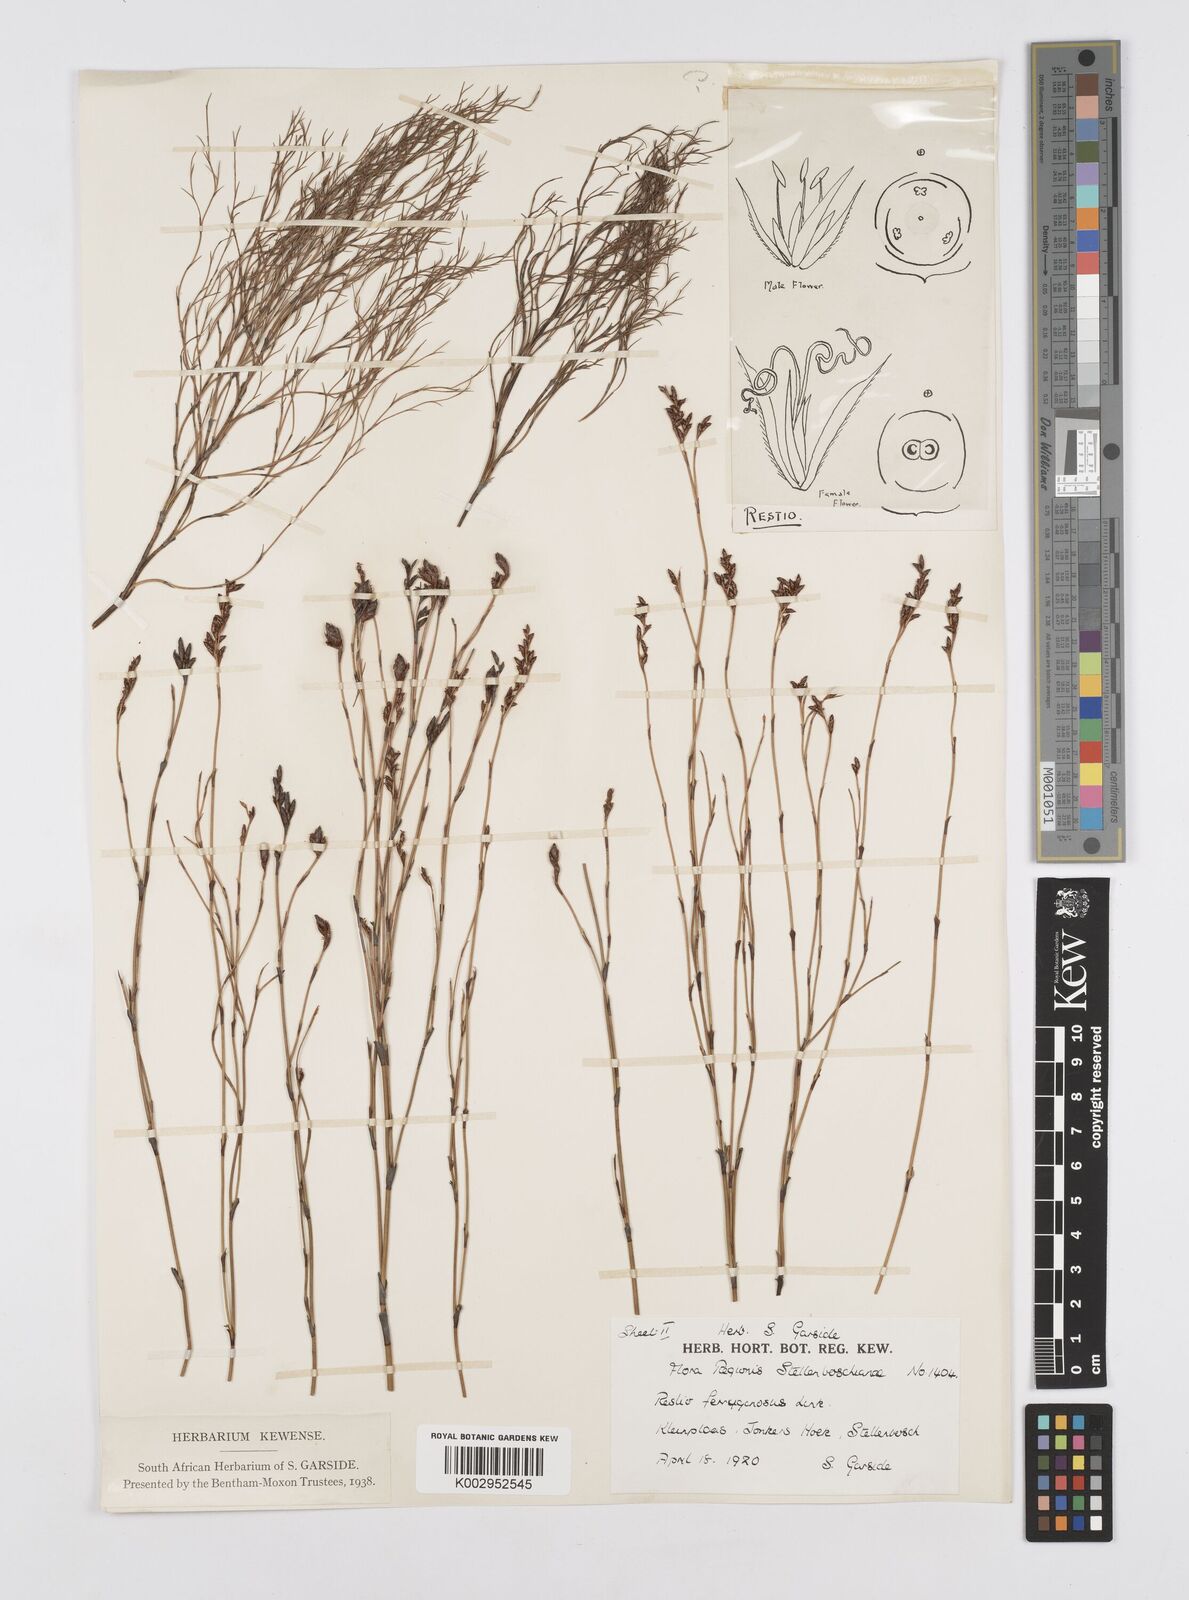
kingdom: Plantae
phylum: Tracheophyta
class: Liliopsida
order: Poales
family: Restionaceae
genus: Restio
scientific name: Restio gaudichaudianus
